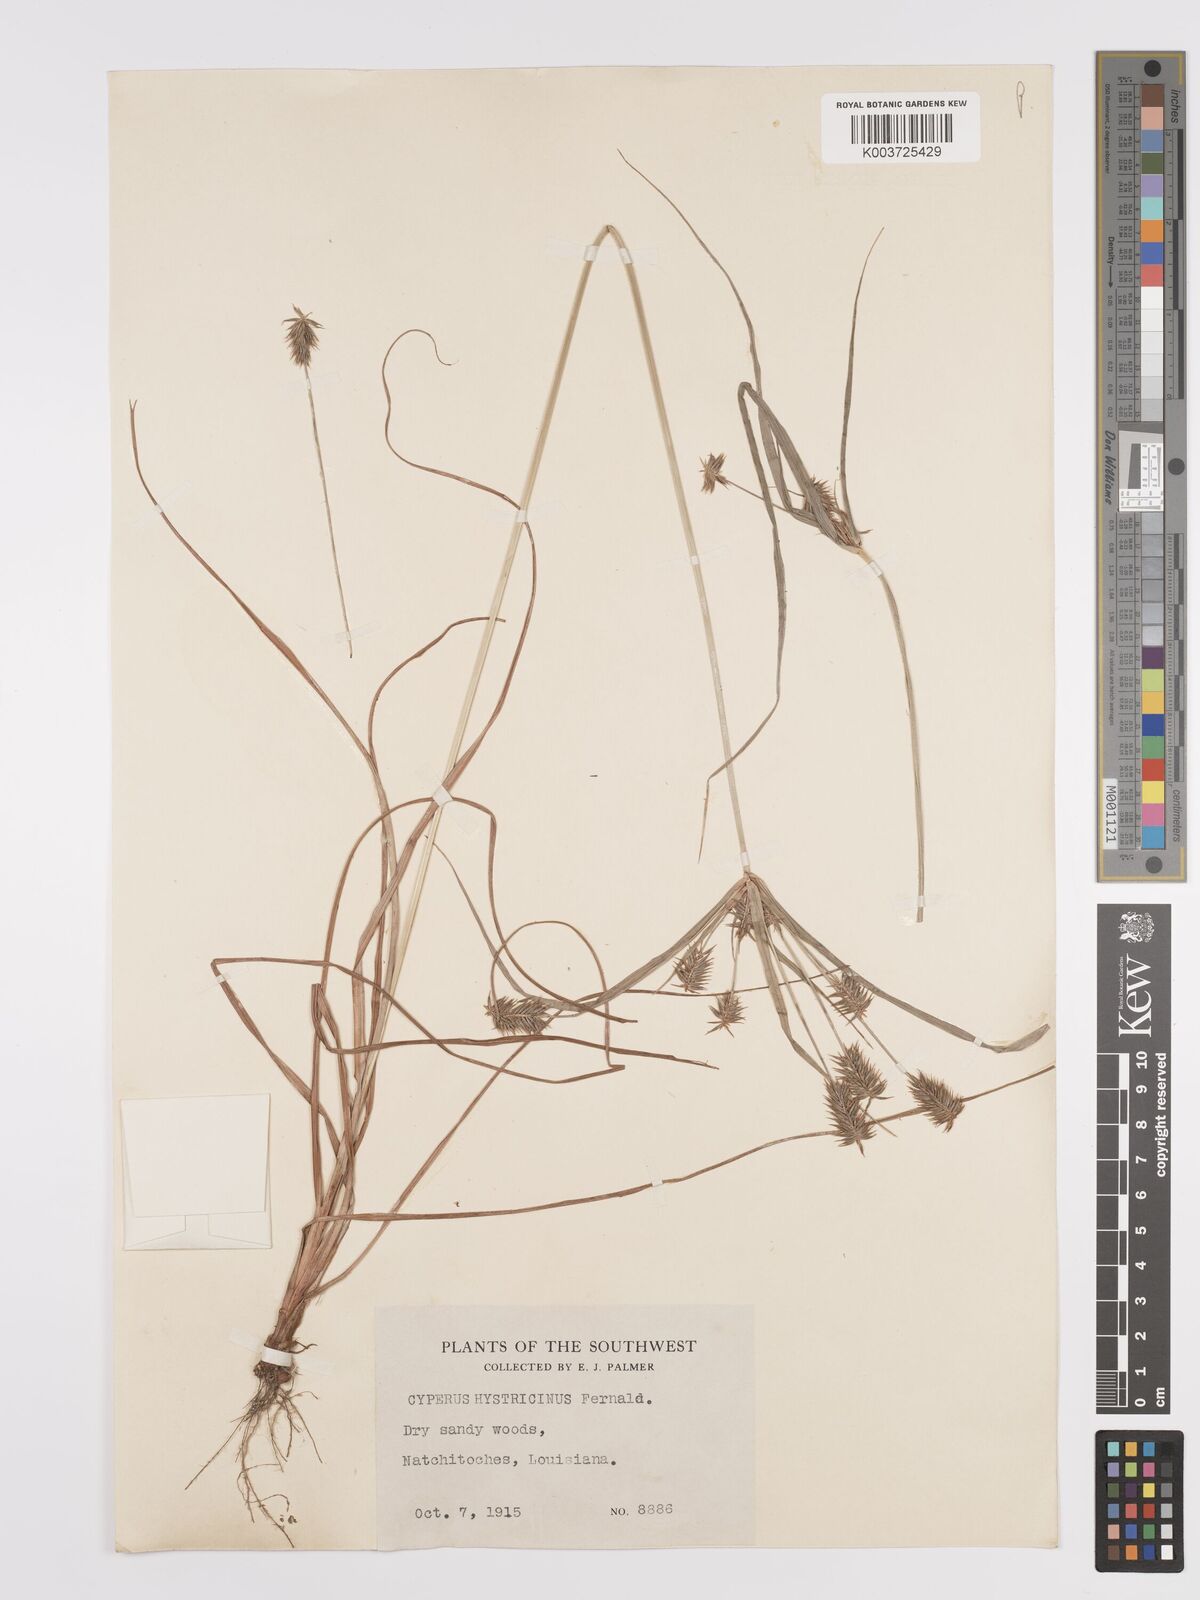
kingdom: Plantae
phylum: Tracheophyta
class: Liliopsida
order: Poales
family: Cyperaceae
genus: Cyperus
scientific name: Cyperus hystricinus
